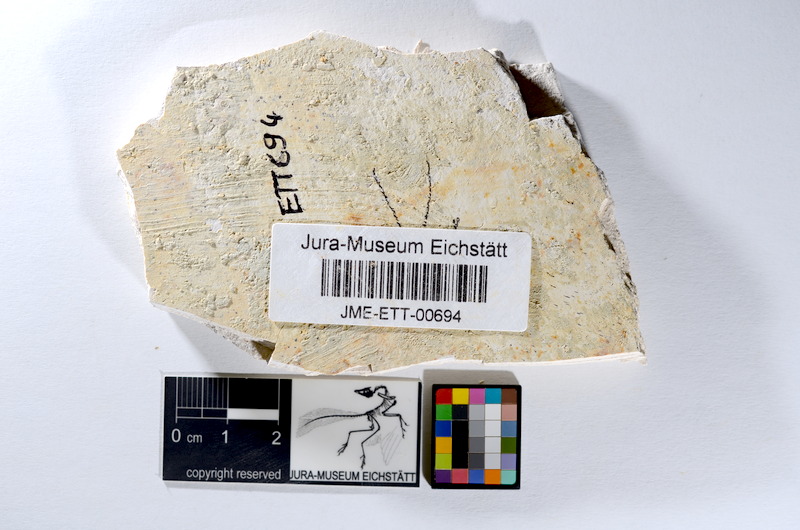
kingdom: Animalia
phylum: Chordata
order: Salmoniformes
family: Orthogonikleithridae
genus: Orthogonikleithrus
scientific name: Orthogonikleithrus hoelli
